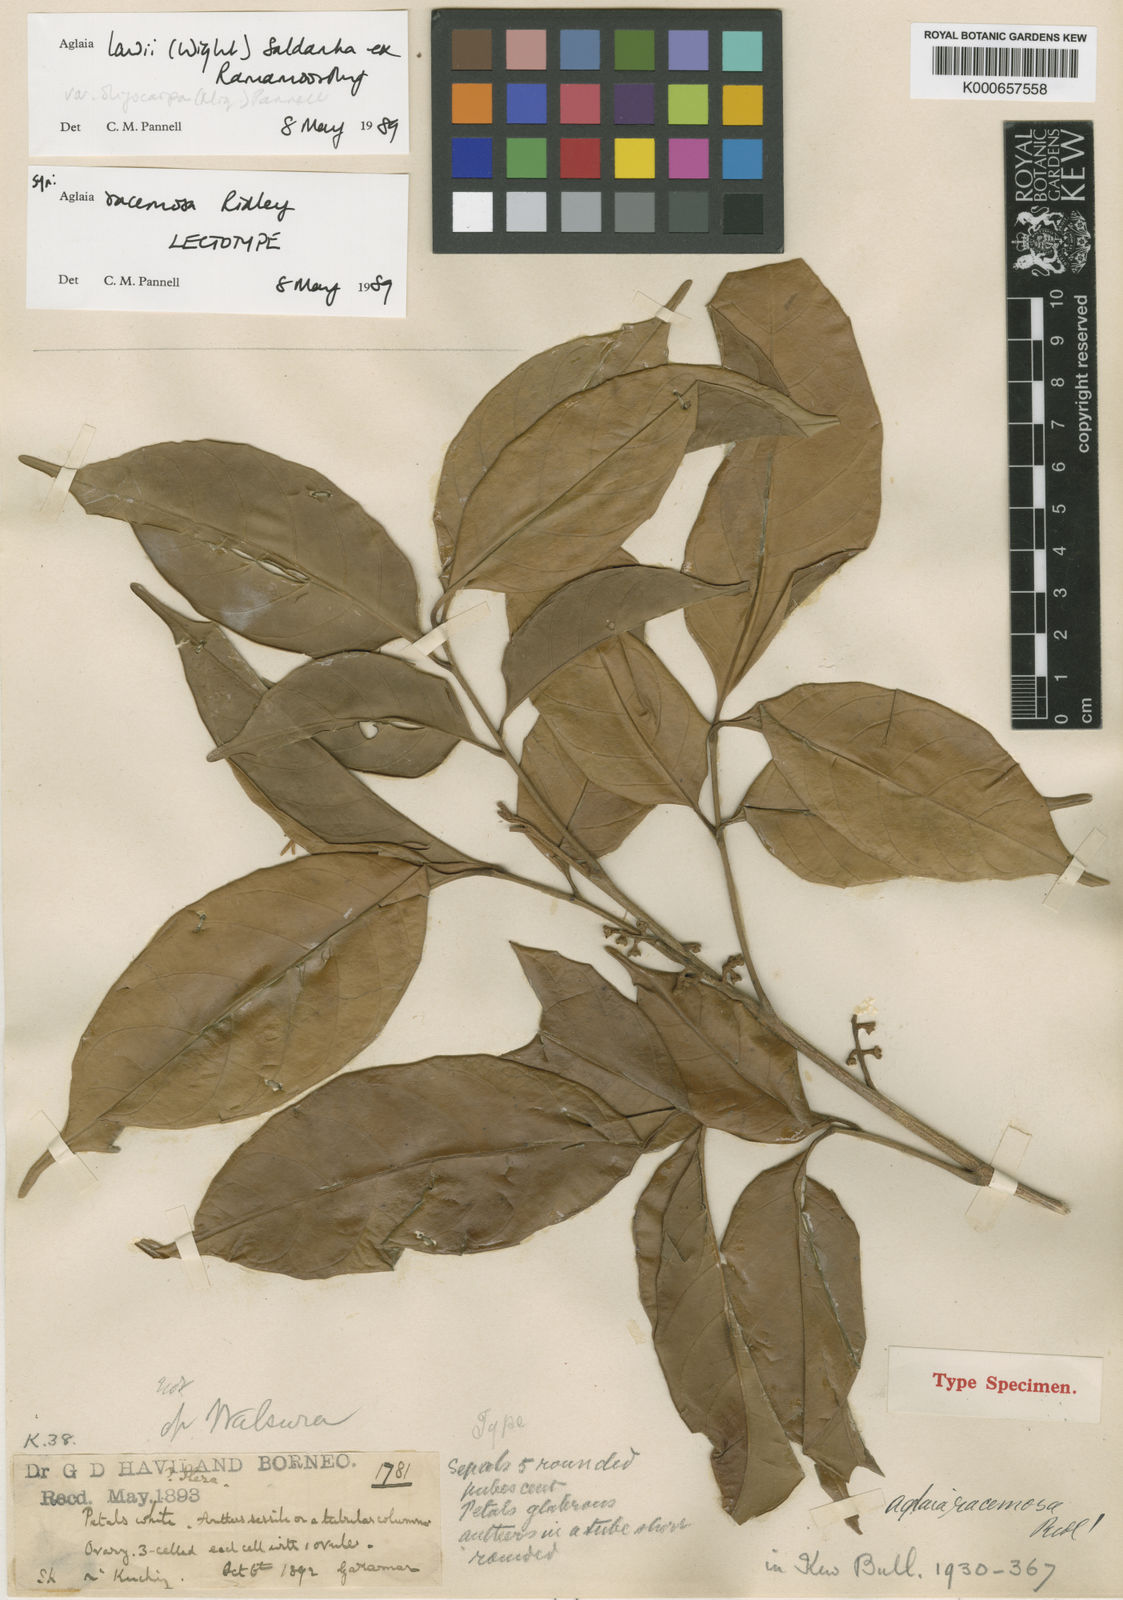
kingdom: Plantae
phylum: Tracheophyta
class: Magnoliopsida
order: Sapindales
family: Meliaceae
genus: Aglaia
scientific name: Aglaia lawii
